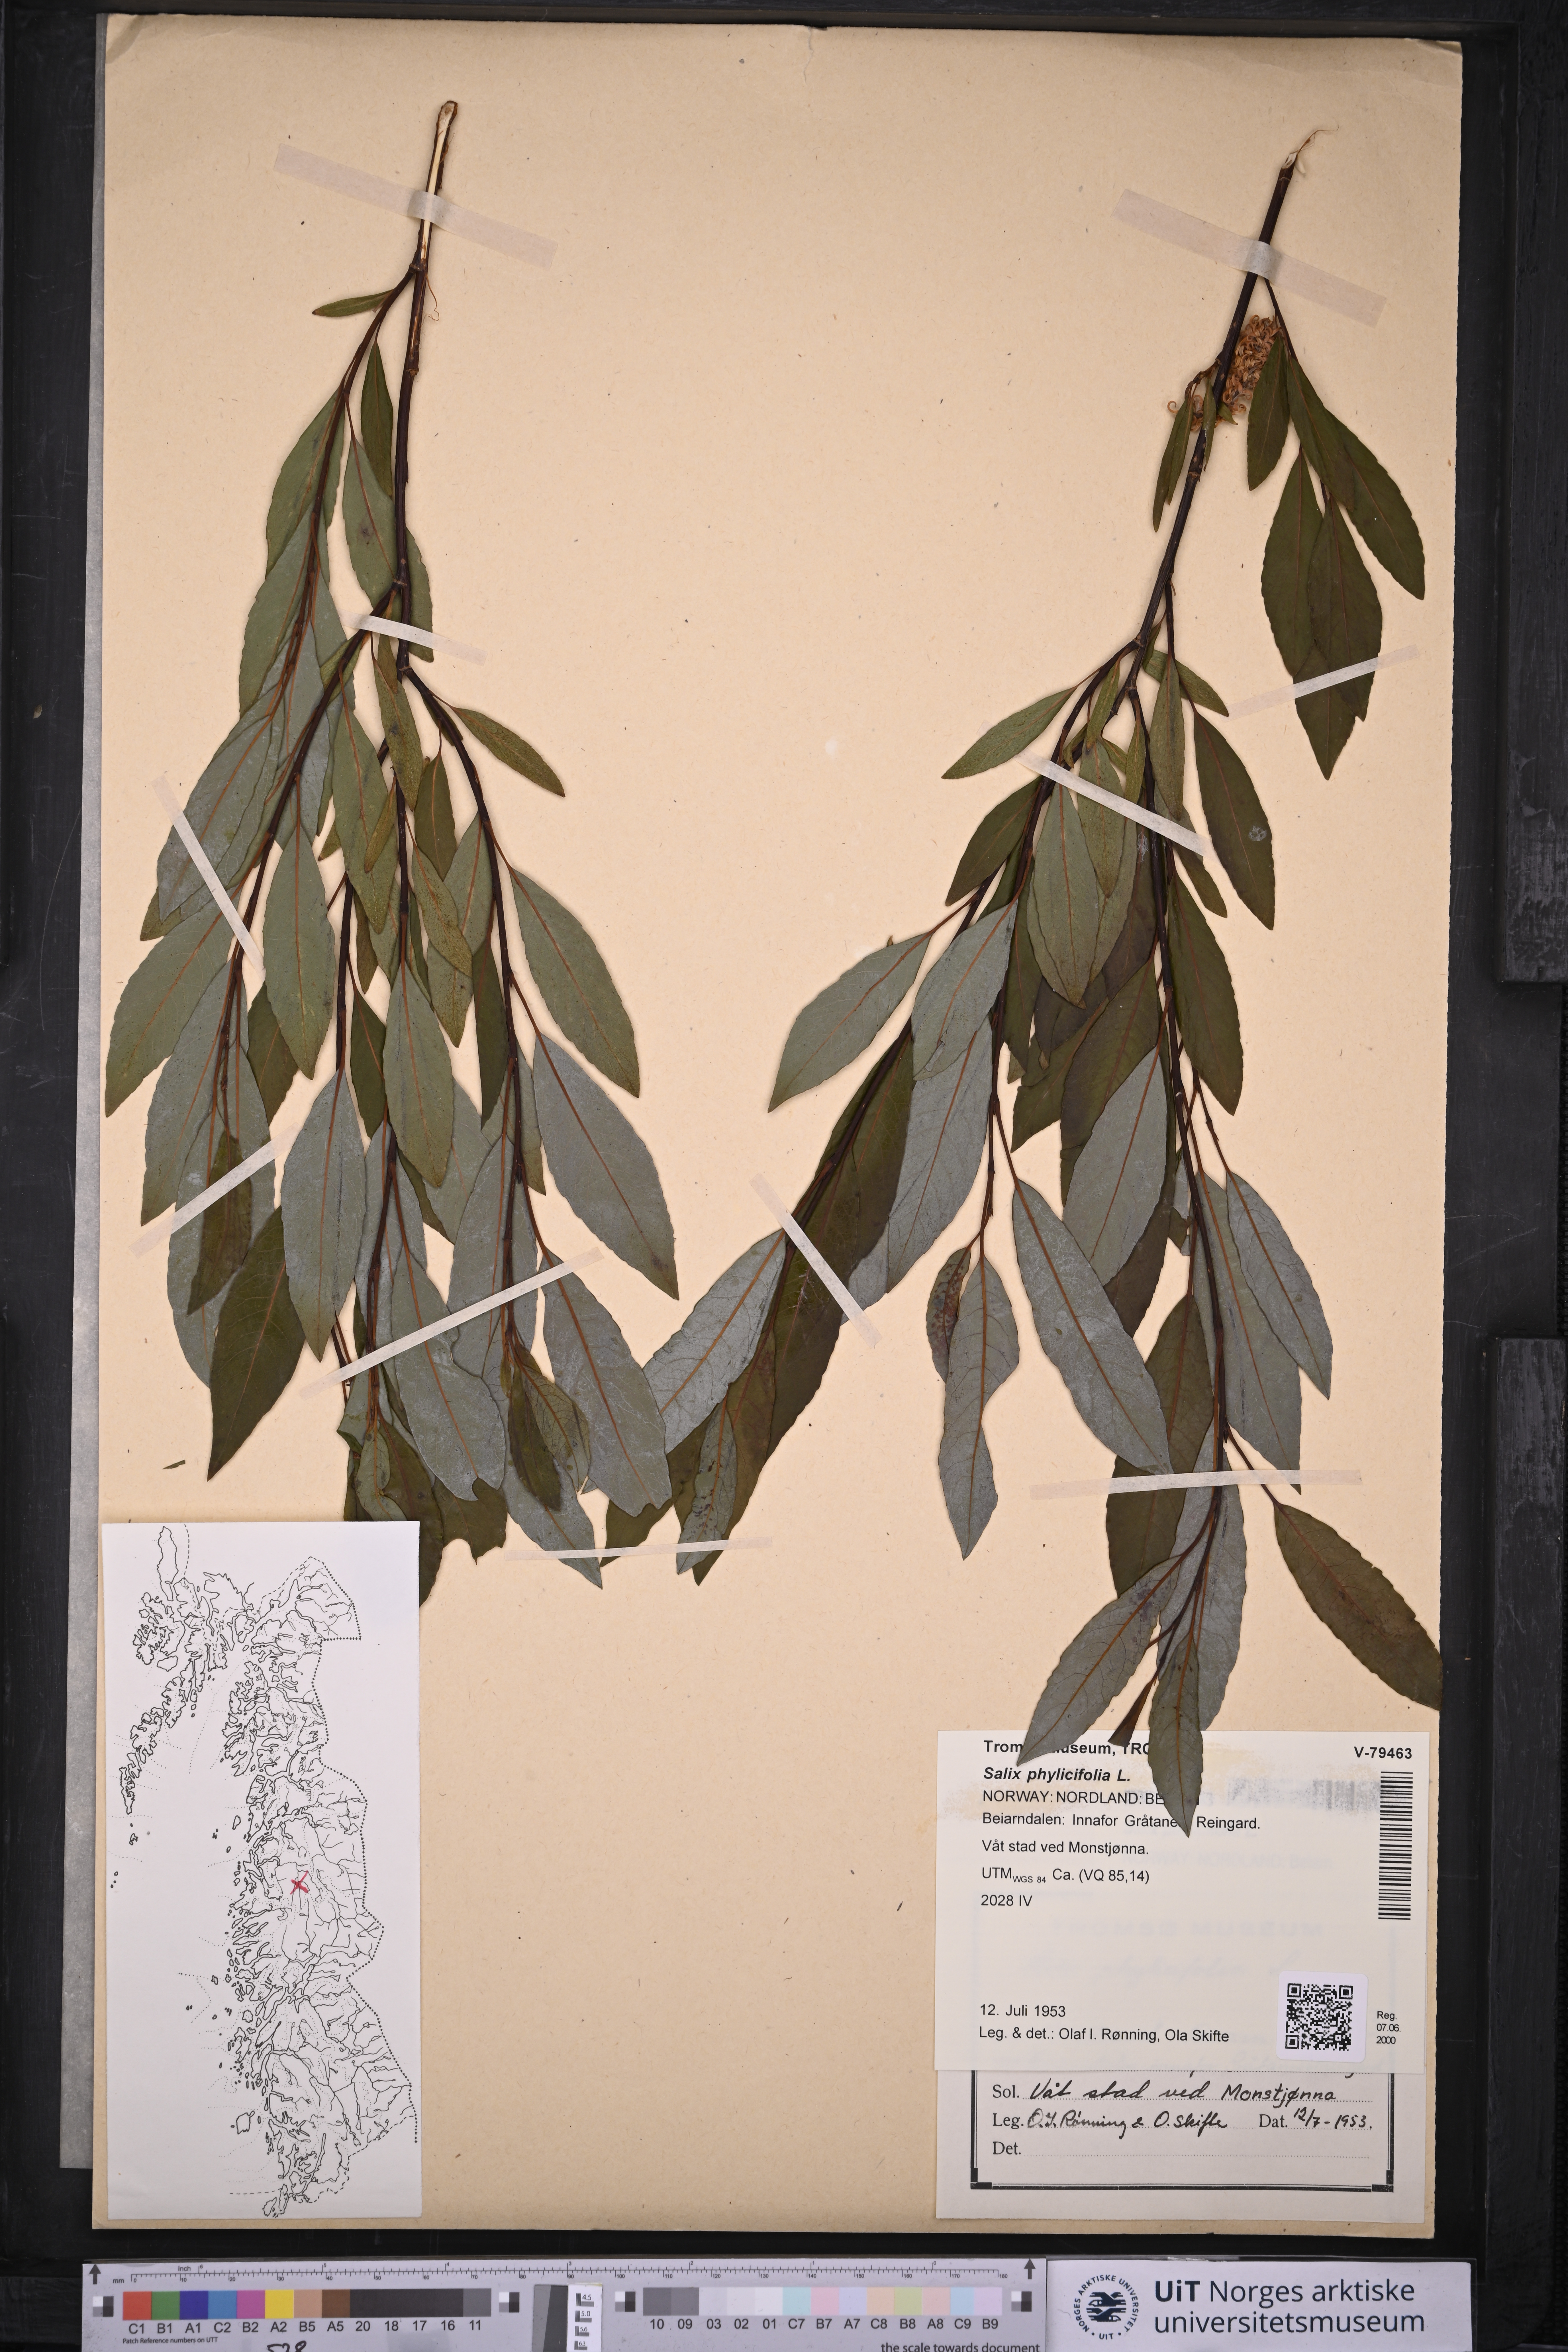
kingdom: Plantae
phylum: Tracheophyta
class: Magnoliopsida
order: Malpighiales
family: Salicaceae
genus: Salix
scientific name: Salix phylicifolia
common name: Tea-leaved willow
